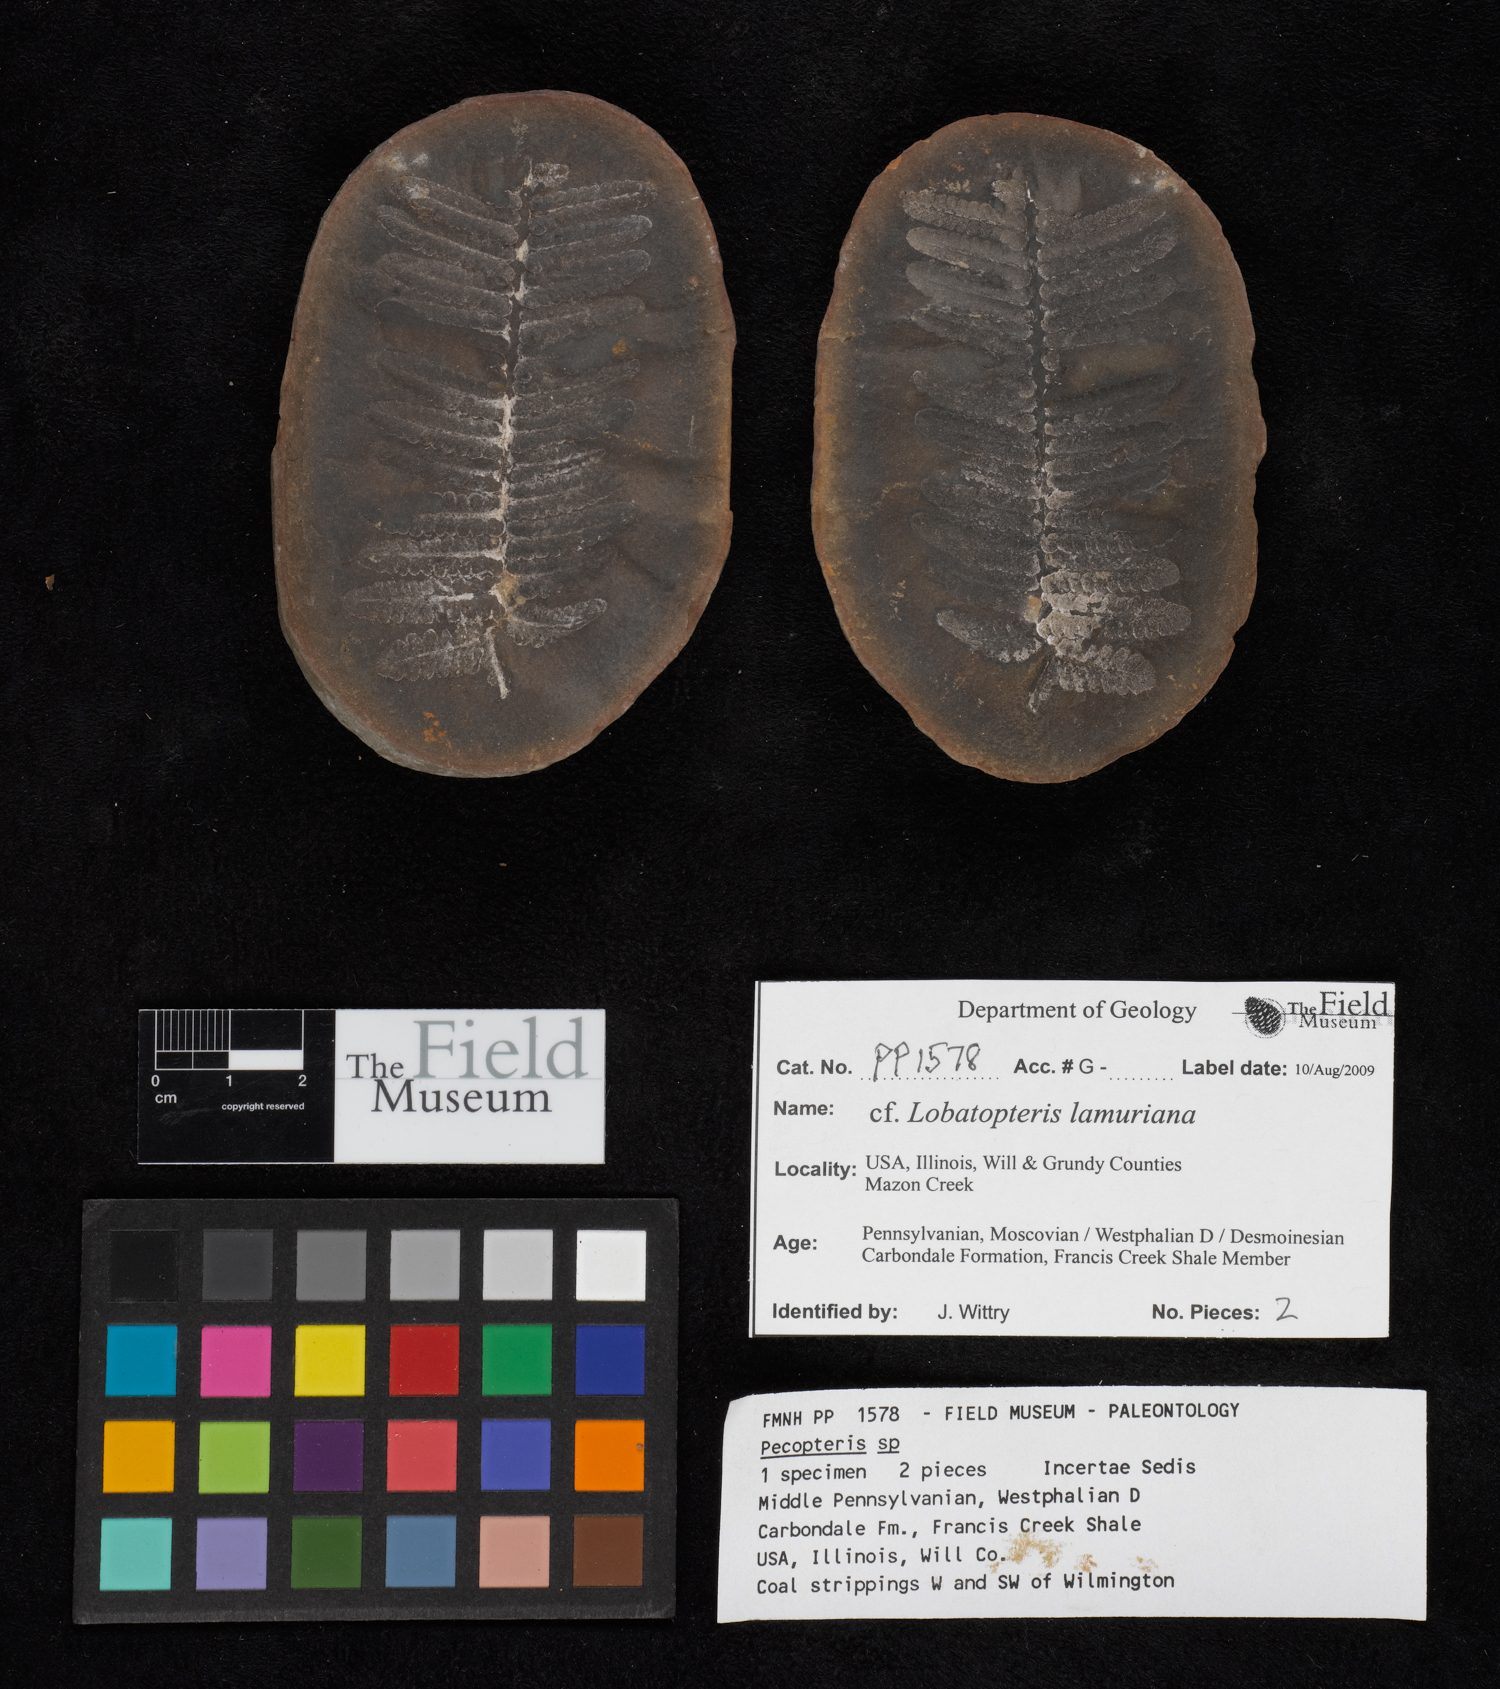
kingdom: Plantae
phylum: Tracheophyta
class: Polypodiopsida
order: Marattiales
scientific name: Marattiales
